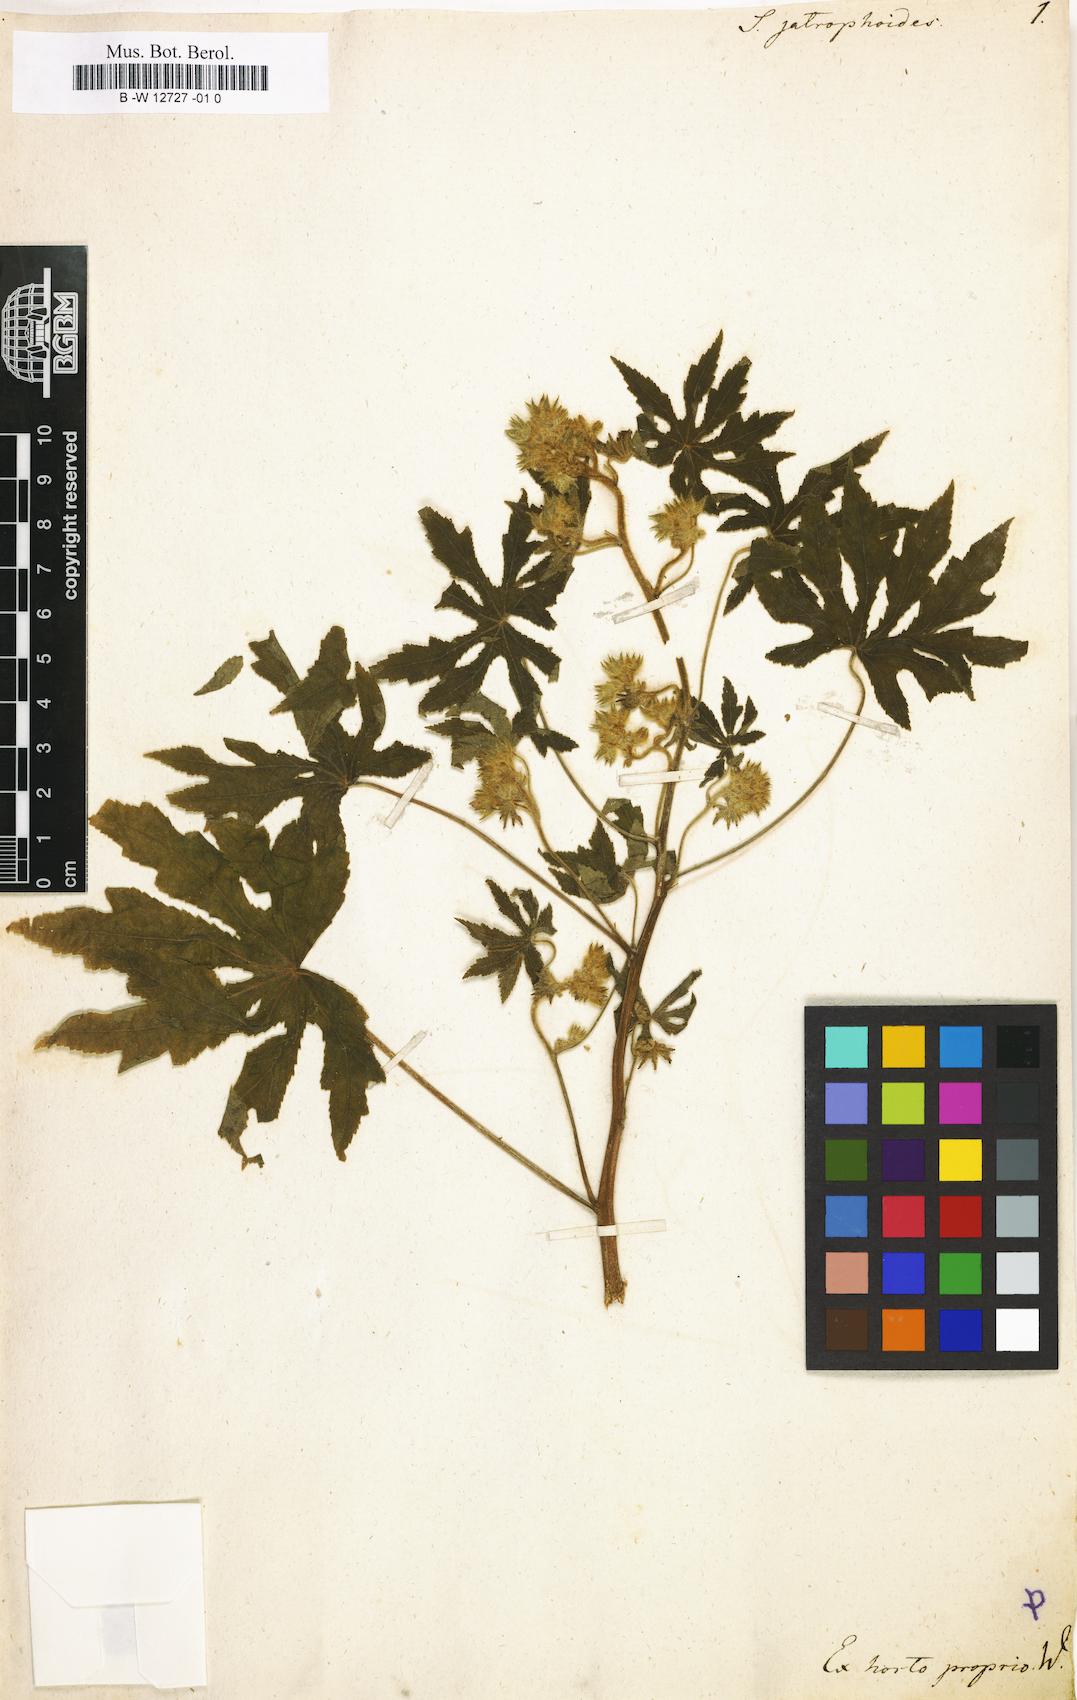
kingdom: Plantae
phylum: Tracheophyta
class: Magnoliopsida
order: Malvales
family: Malvaceae
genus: Sida
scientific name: Sida jatrophoides
